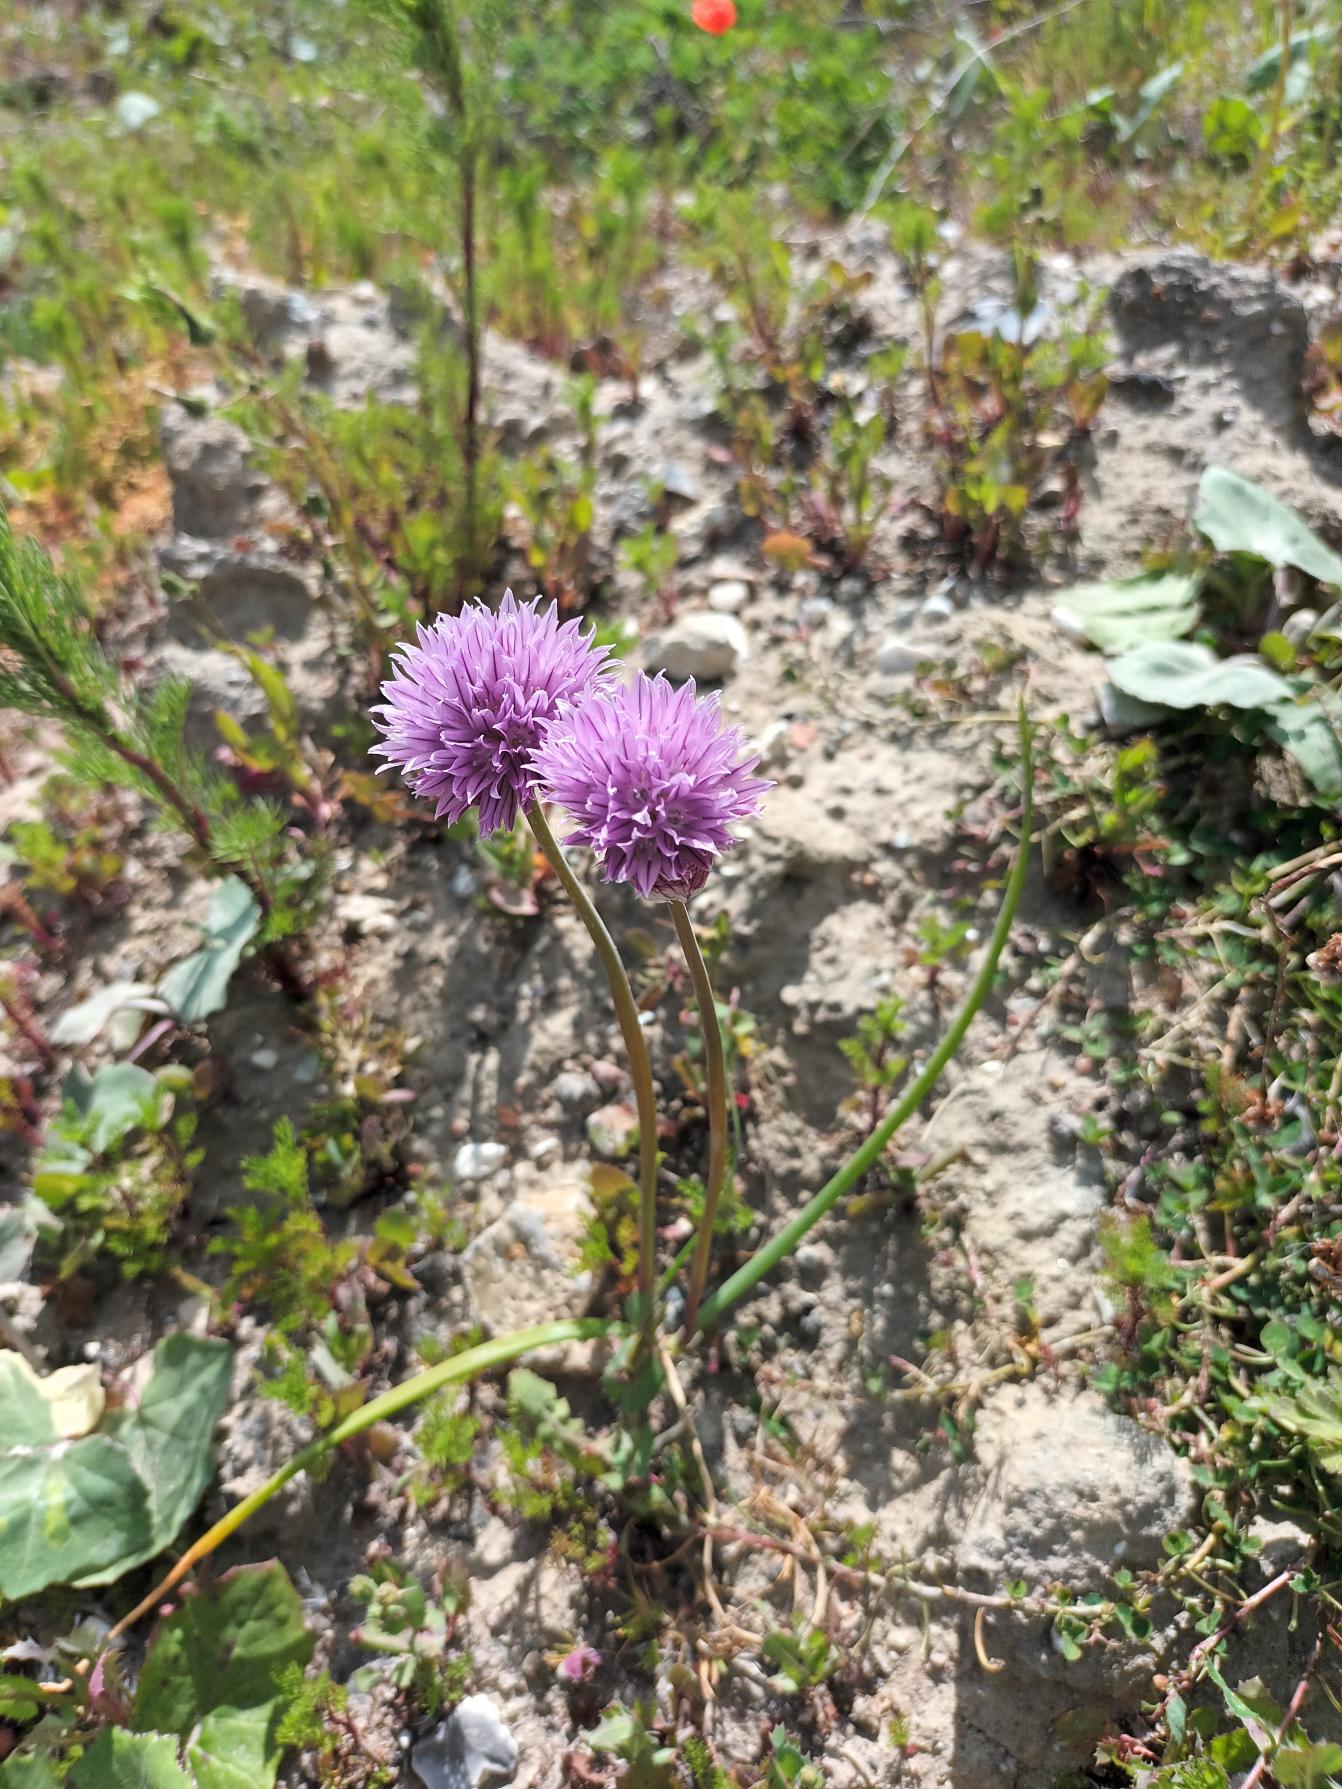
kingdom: Plantae
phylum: Tracheophyta
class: Liliopsida
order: Asparagales
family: Amaryllidaceae
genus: Allium
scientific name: Allium schoenoprasum
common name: Pur-løg
